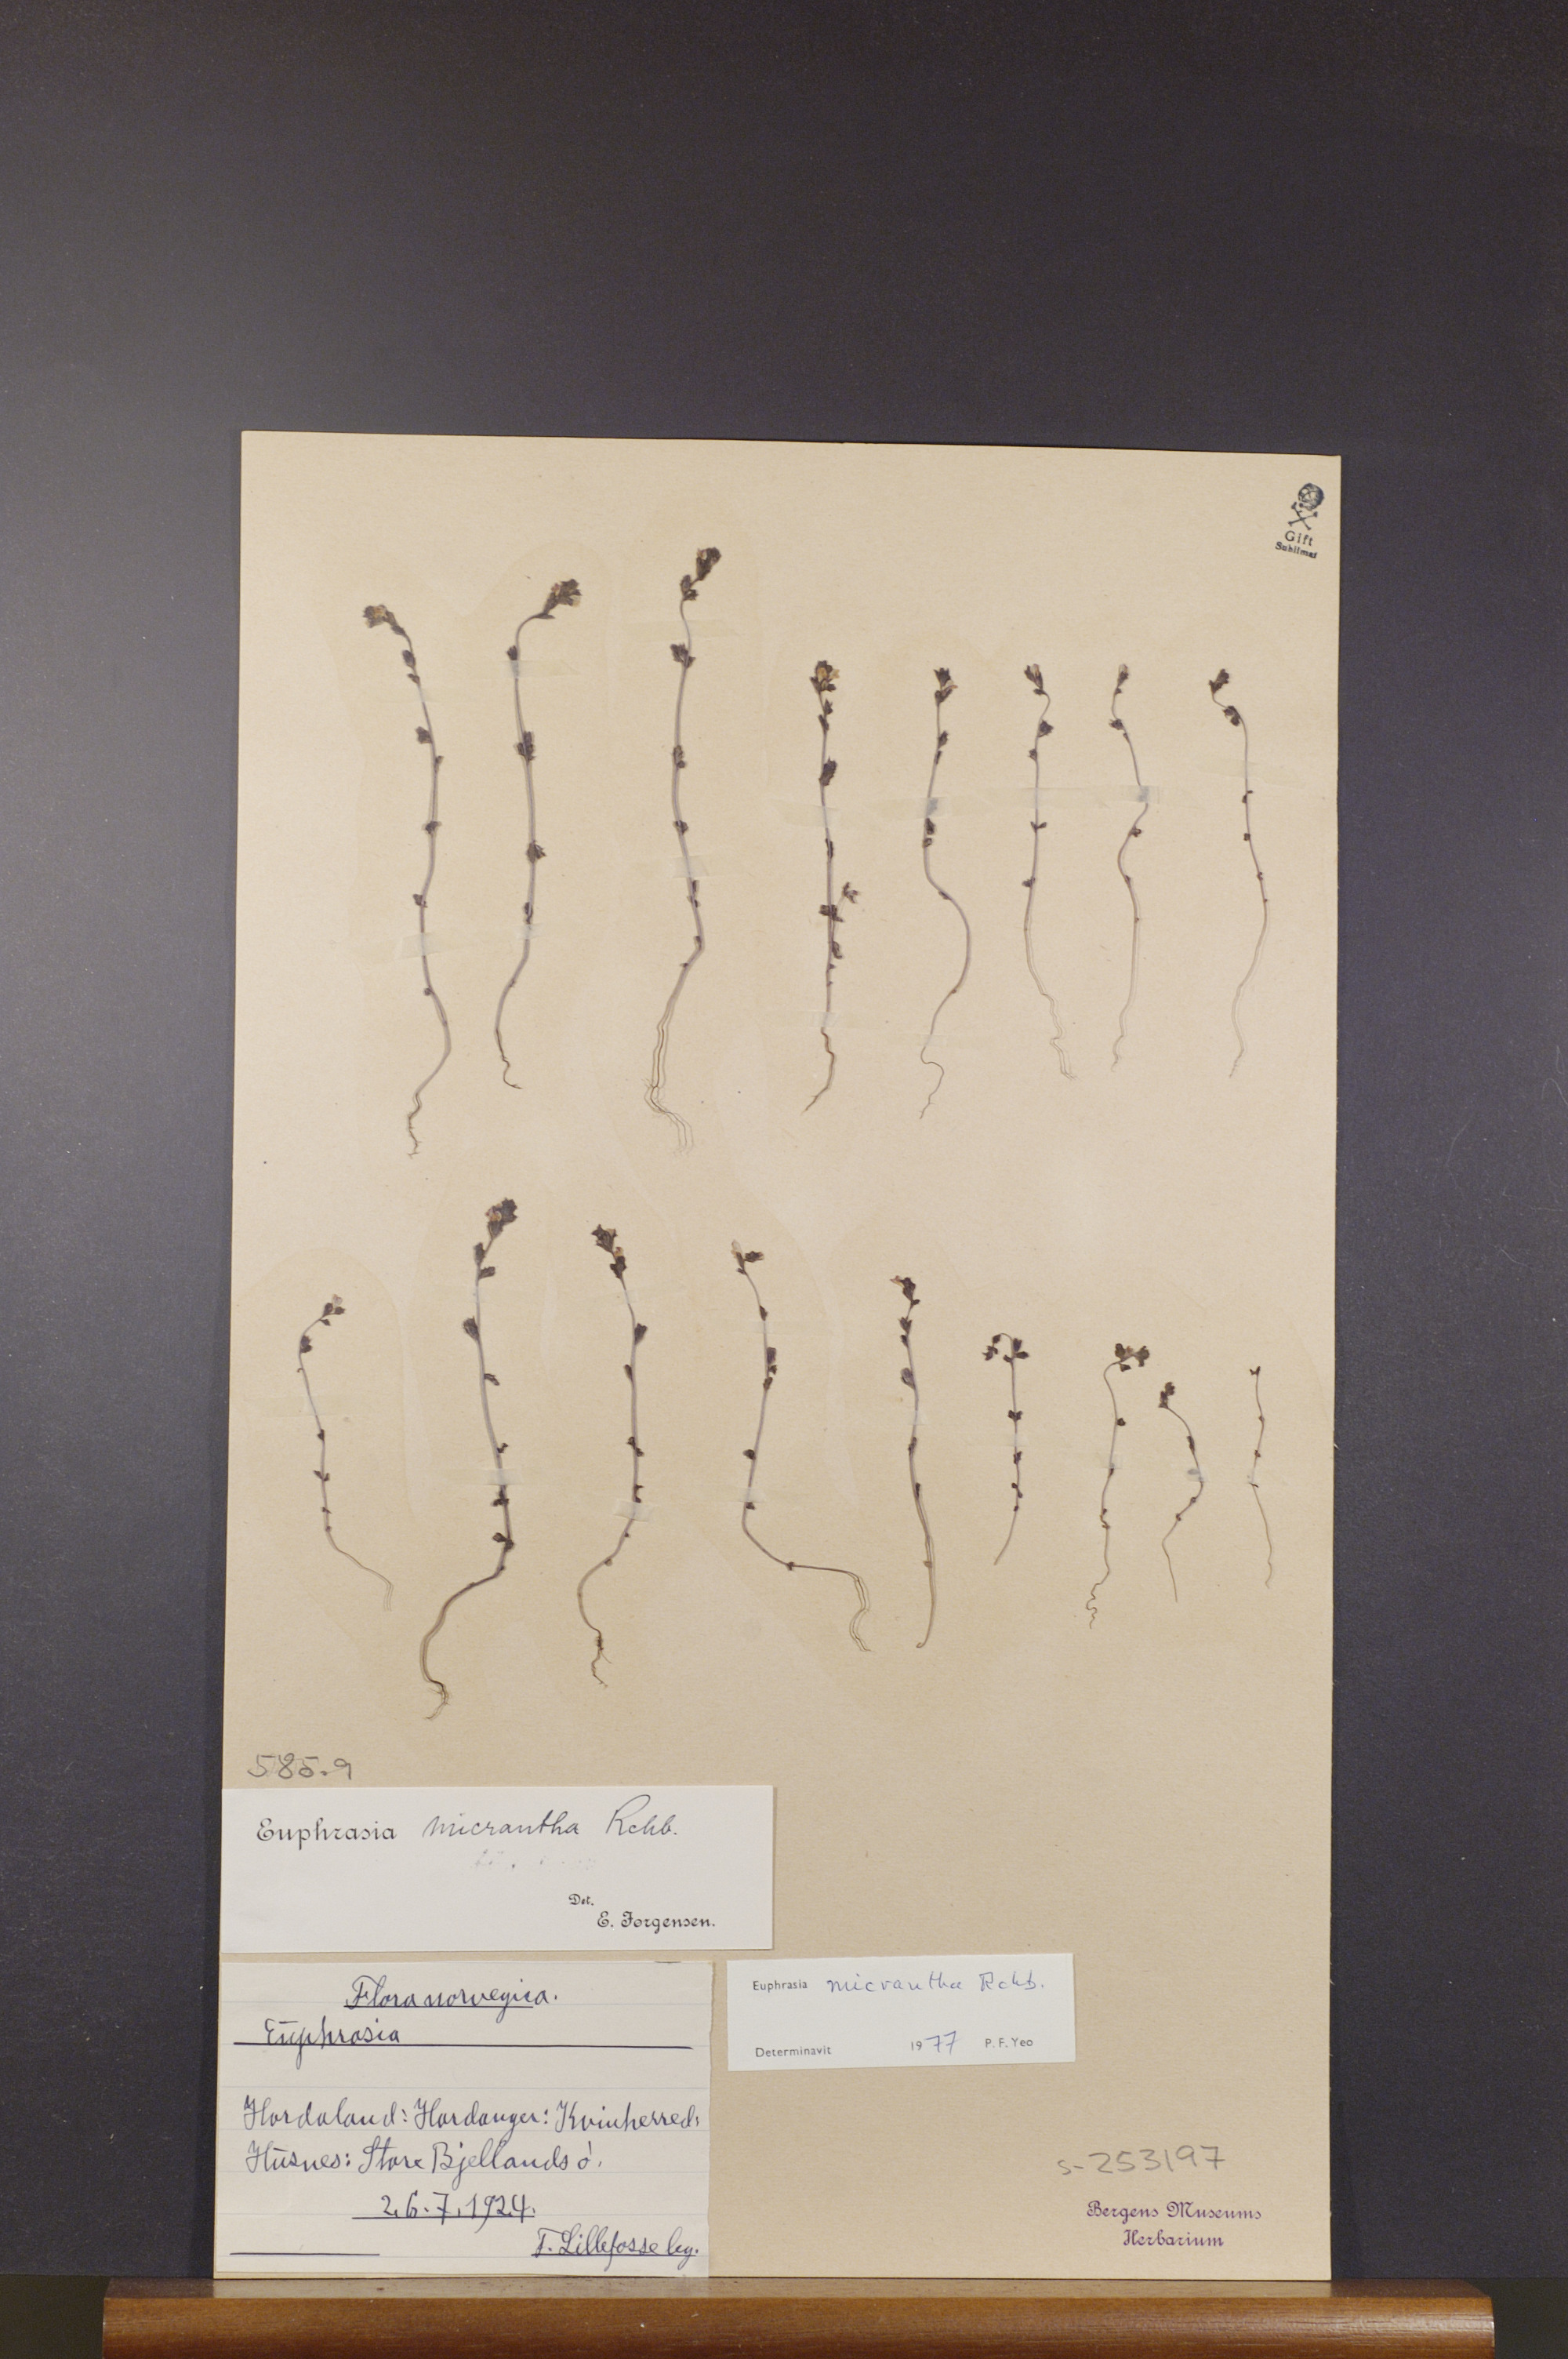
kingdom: Plantae
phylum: Tracheophyta
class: Magnoliopsida
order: Lamiales
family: Orobanchaceae
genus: Euphrasia
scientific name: Euphrasia micrantha
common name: Northern eyebright
